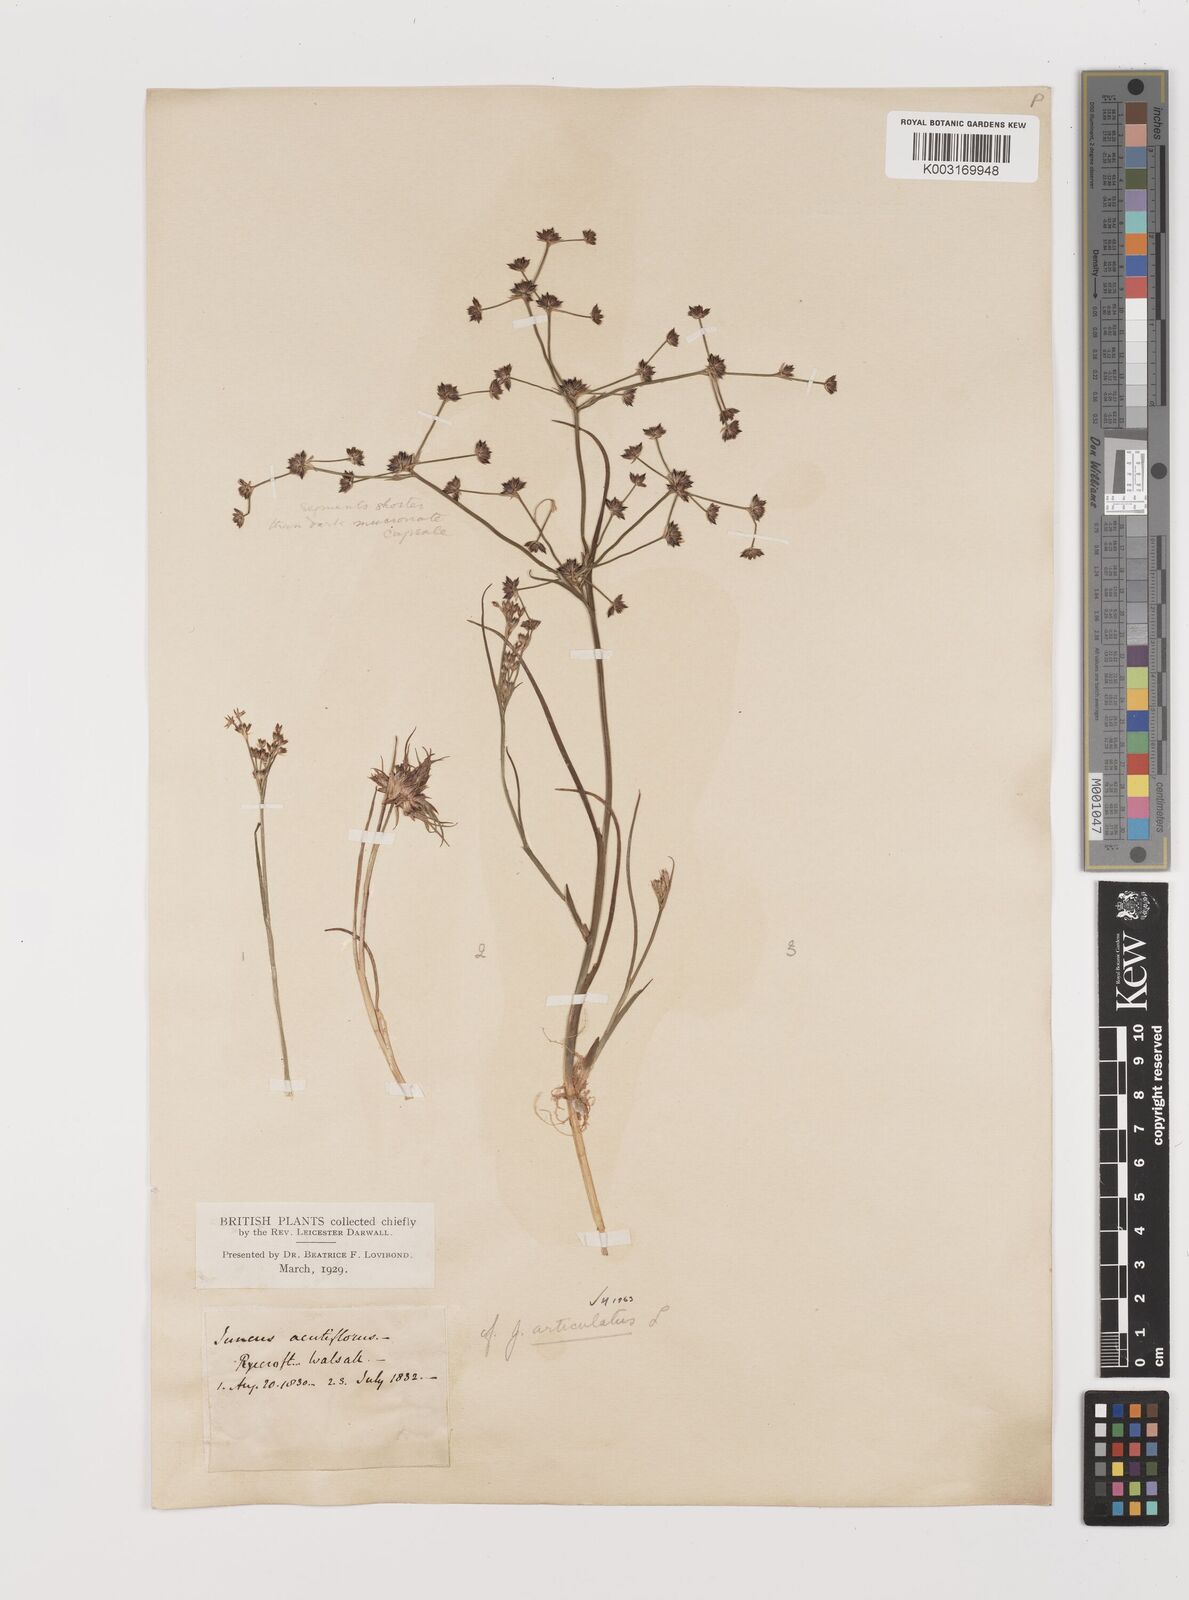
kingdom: Plantae
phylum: Tracheophyta
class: Liliopsida
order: Poales
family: Juncaceae
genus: Juncus
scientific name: Juncus articulatus
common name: Jointed rush
